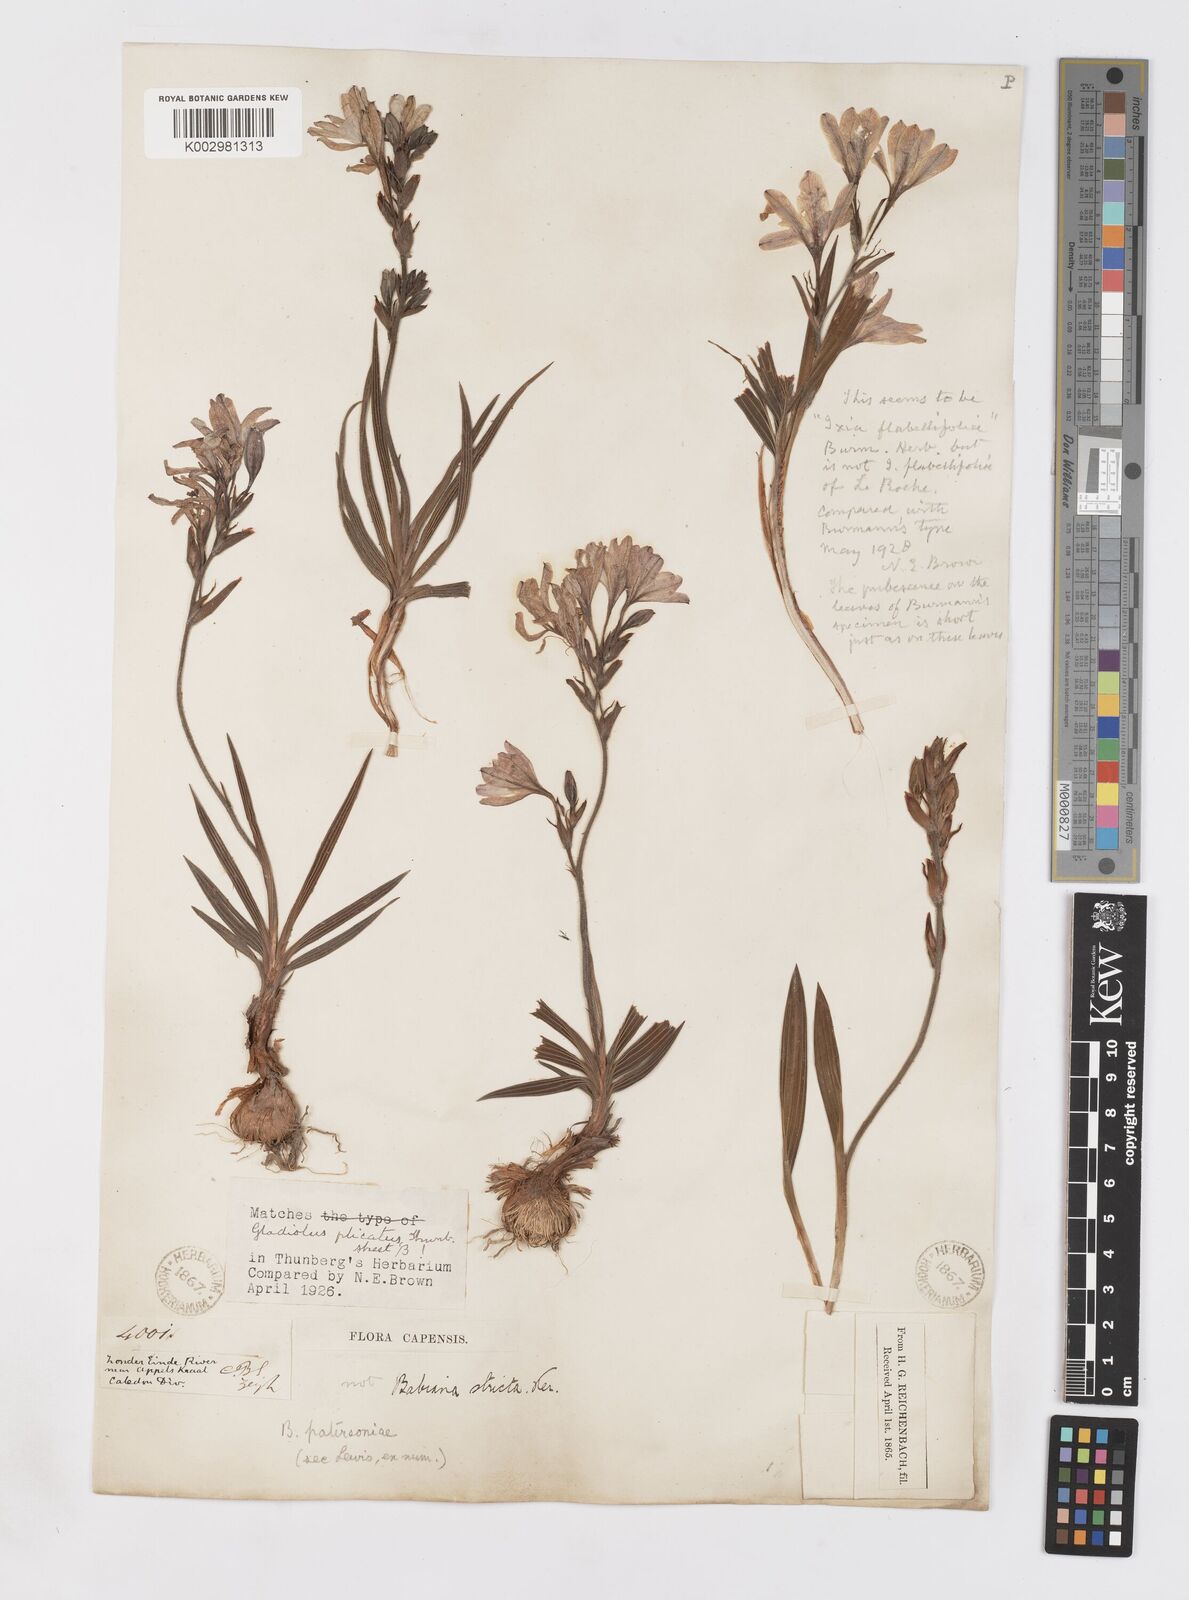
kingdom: Plantae
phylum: Tracheophyta
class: Liliopsida
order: Asparagales
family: Iridaceae
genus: Babiana
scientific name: Babiana patersoniae
